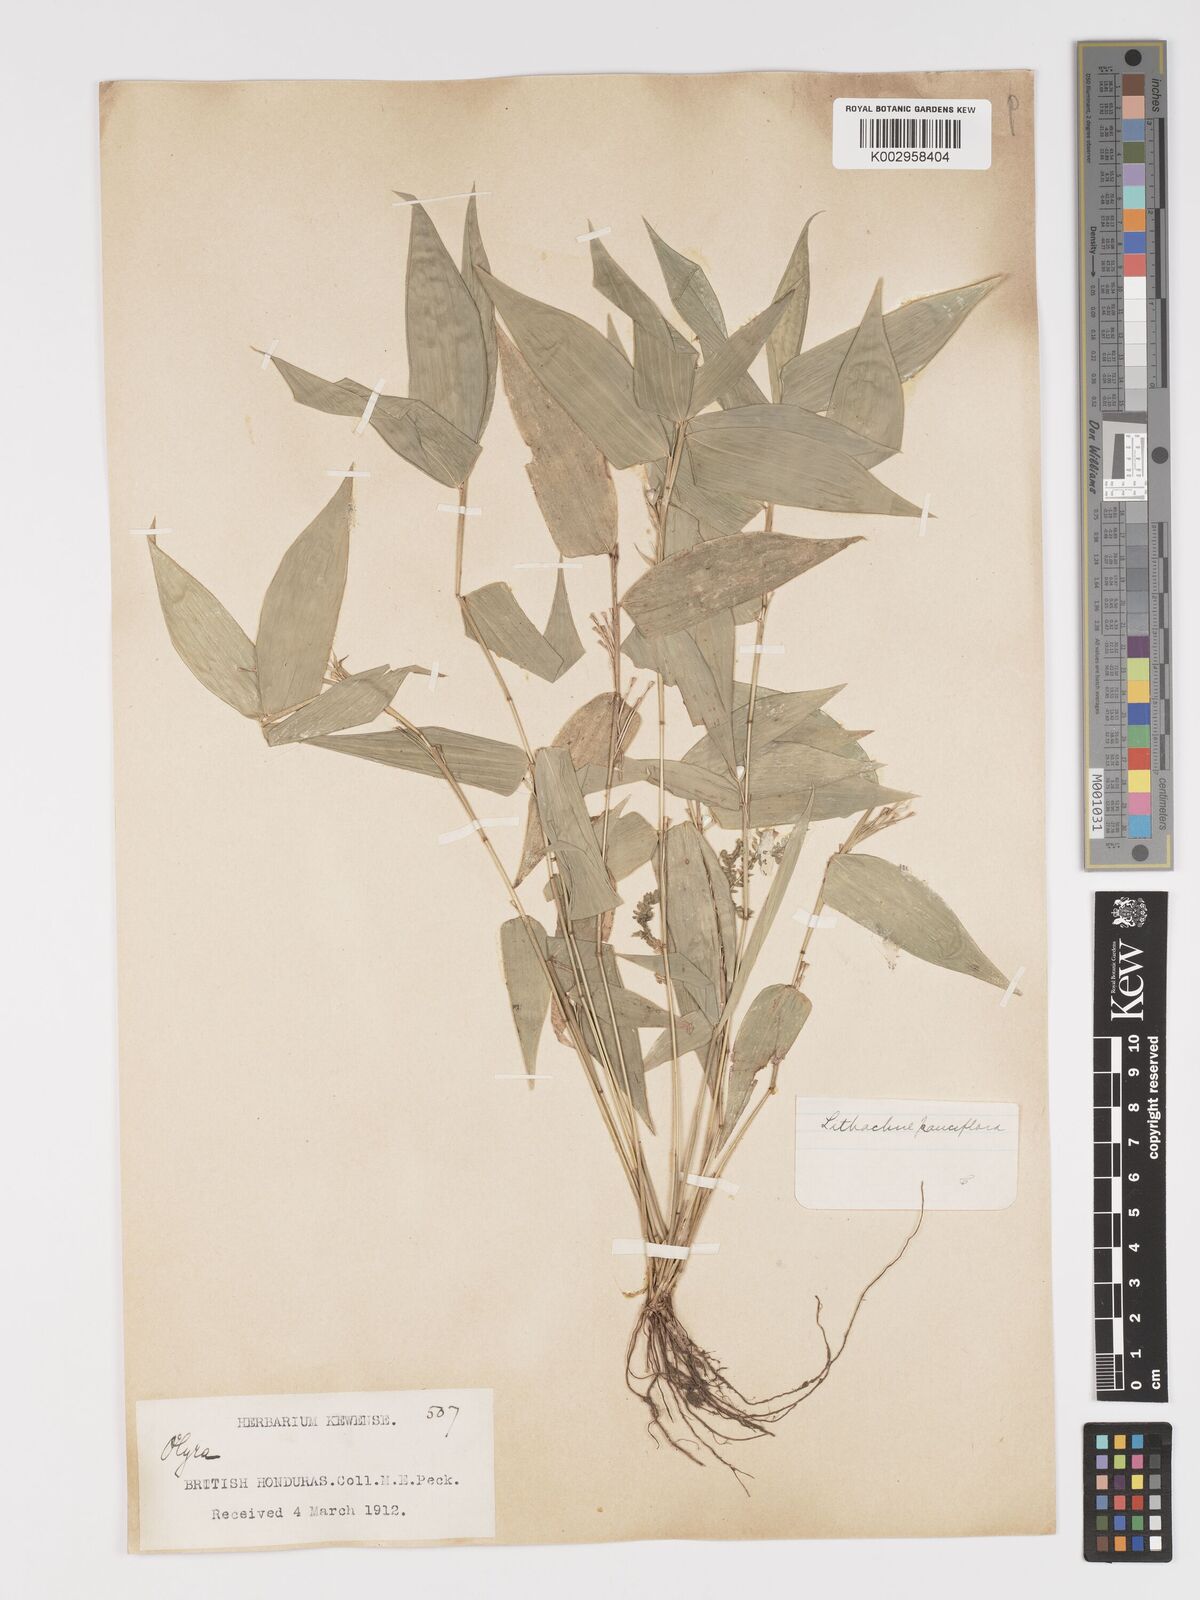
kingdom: Plantae
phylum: Tracheophyta
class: Liliopsida
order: Poales
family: Poaceae
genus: Lithachne
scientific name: Lithachne pauciflora
